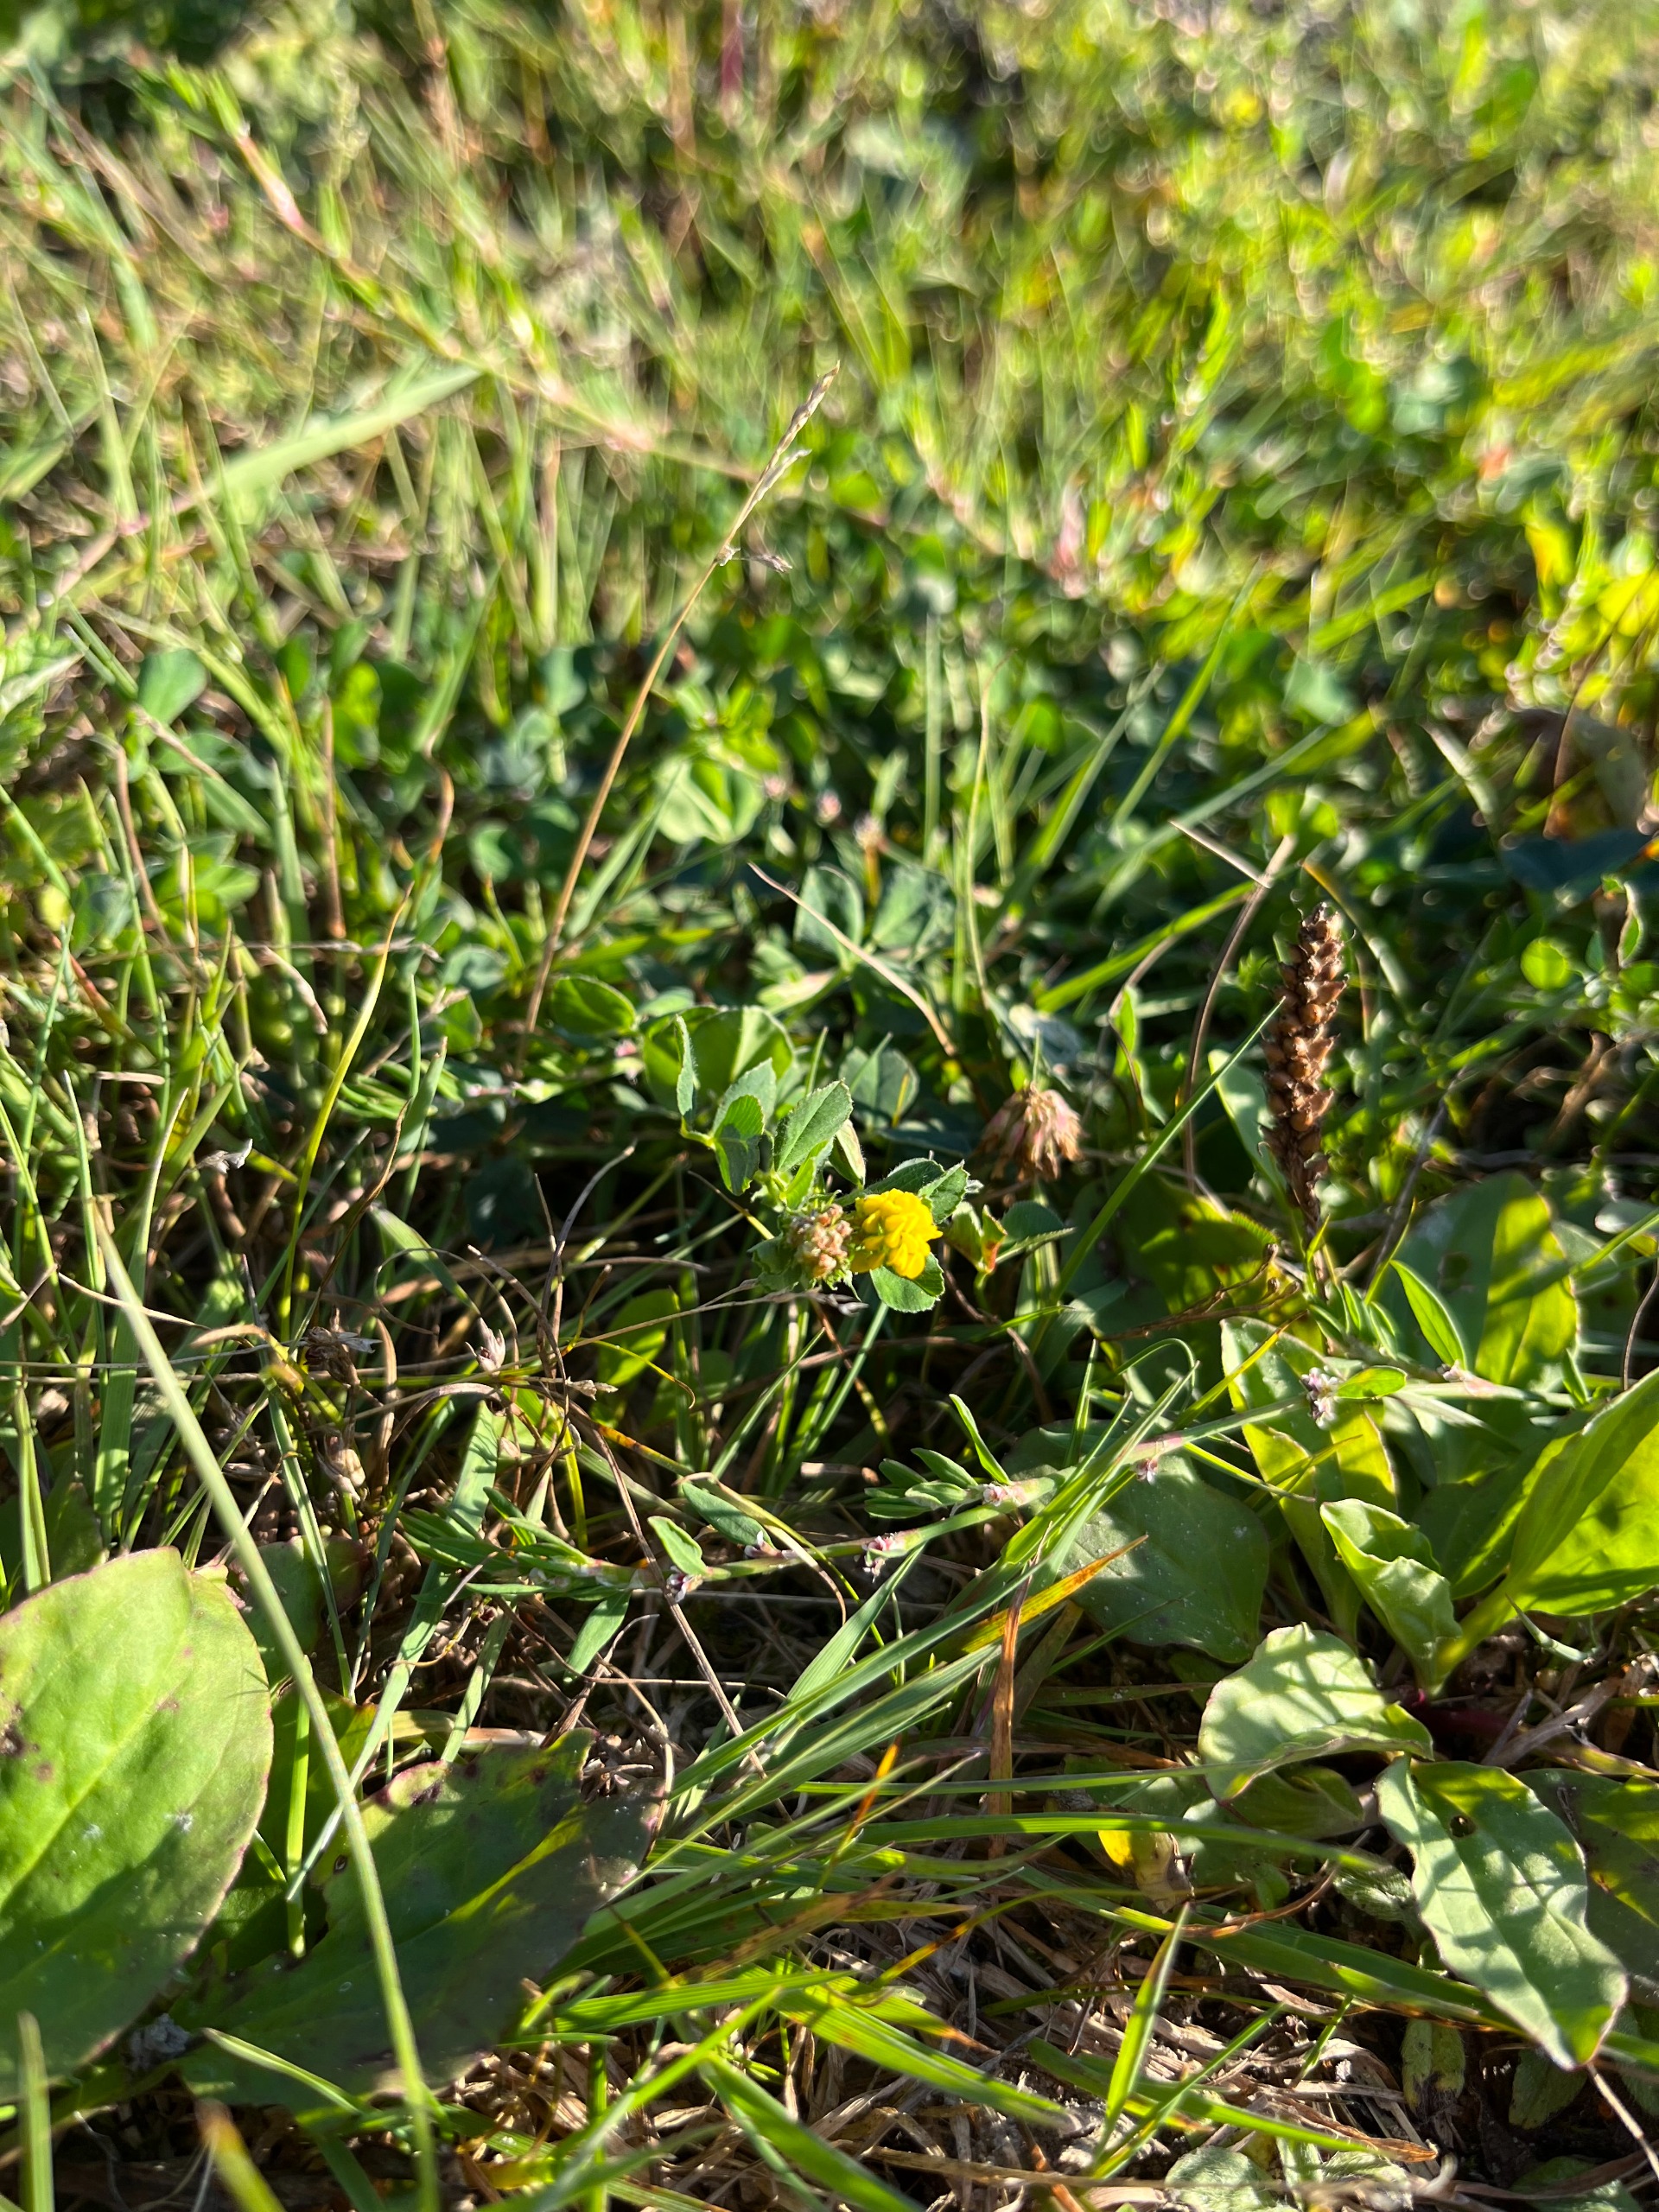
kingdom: Plantae
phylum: Tracheophyta
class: Magnoliopsida
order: Fabales
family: Fabaceae
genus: Medicago
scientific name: Medicago lupulina
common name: Humle-sneglebælg
